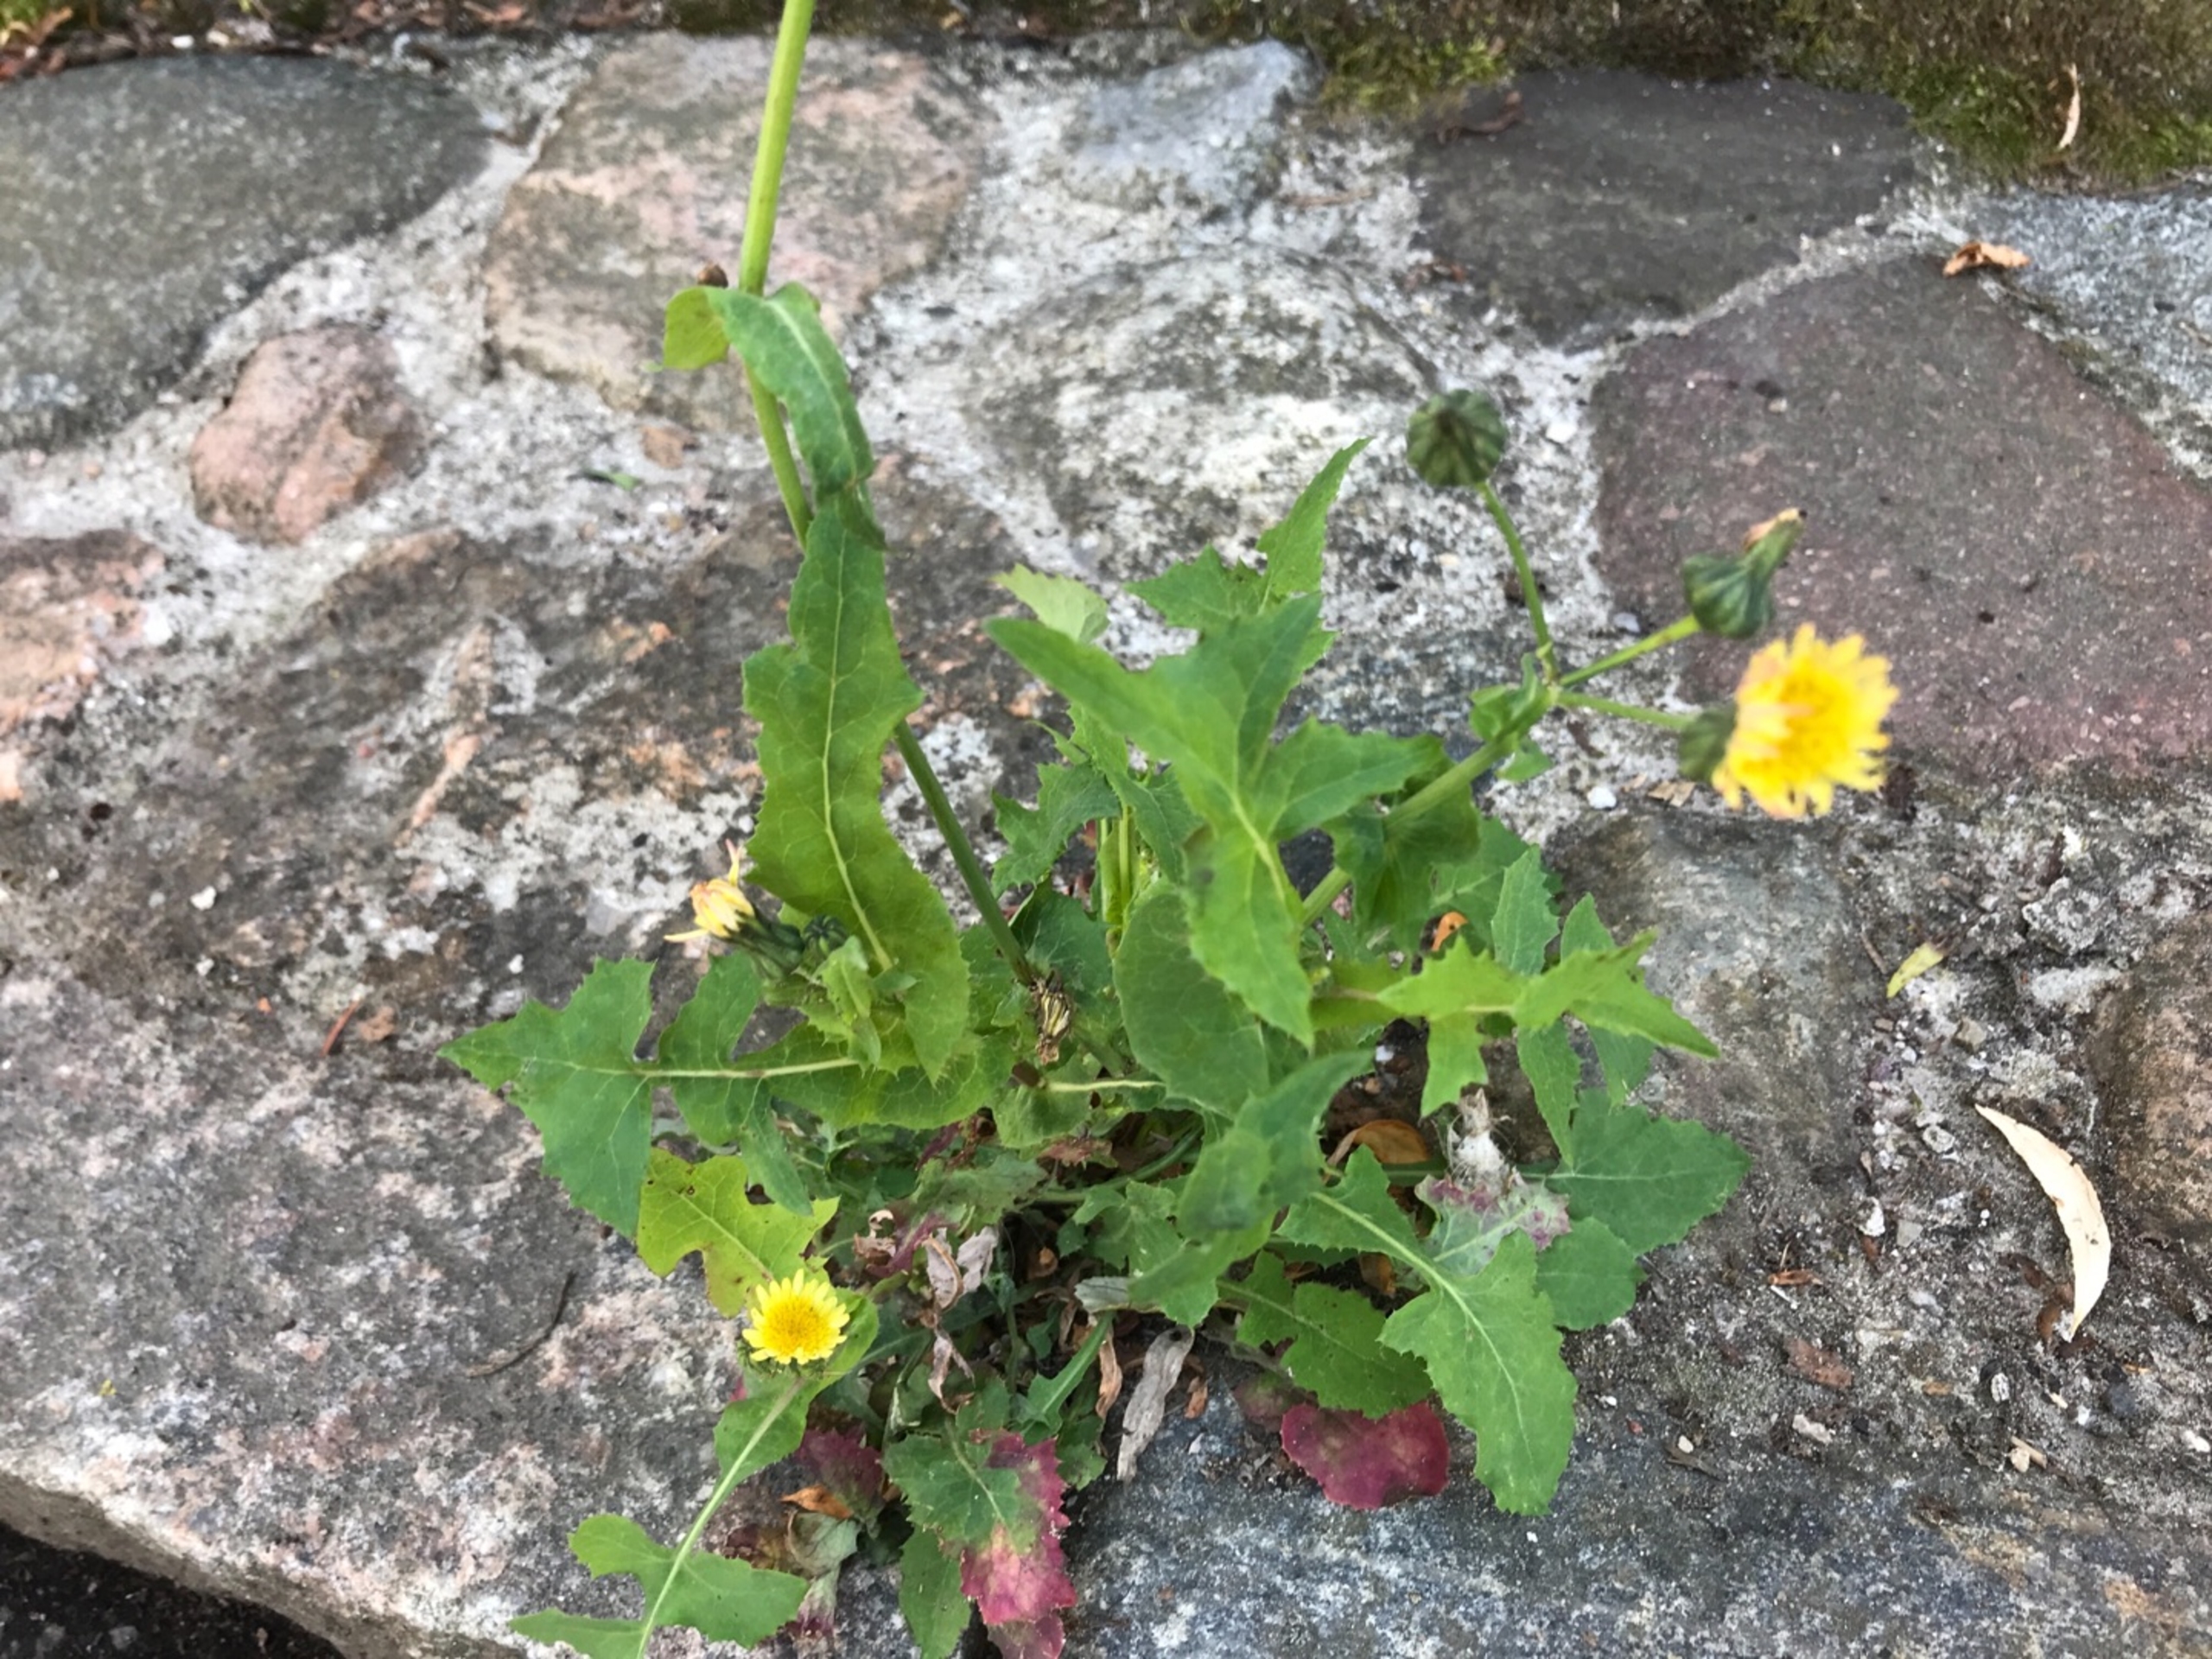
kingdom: Plantae
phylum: Tracheophyta
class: Magnoliopsida
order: Asterales
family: Asteraceae
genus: Sonchus
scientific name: Sonchus oleraceus
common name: Almindelig svinemælk
